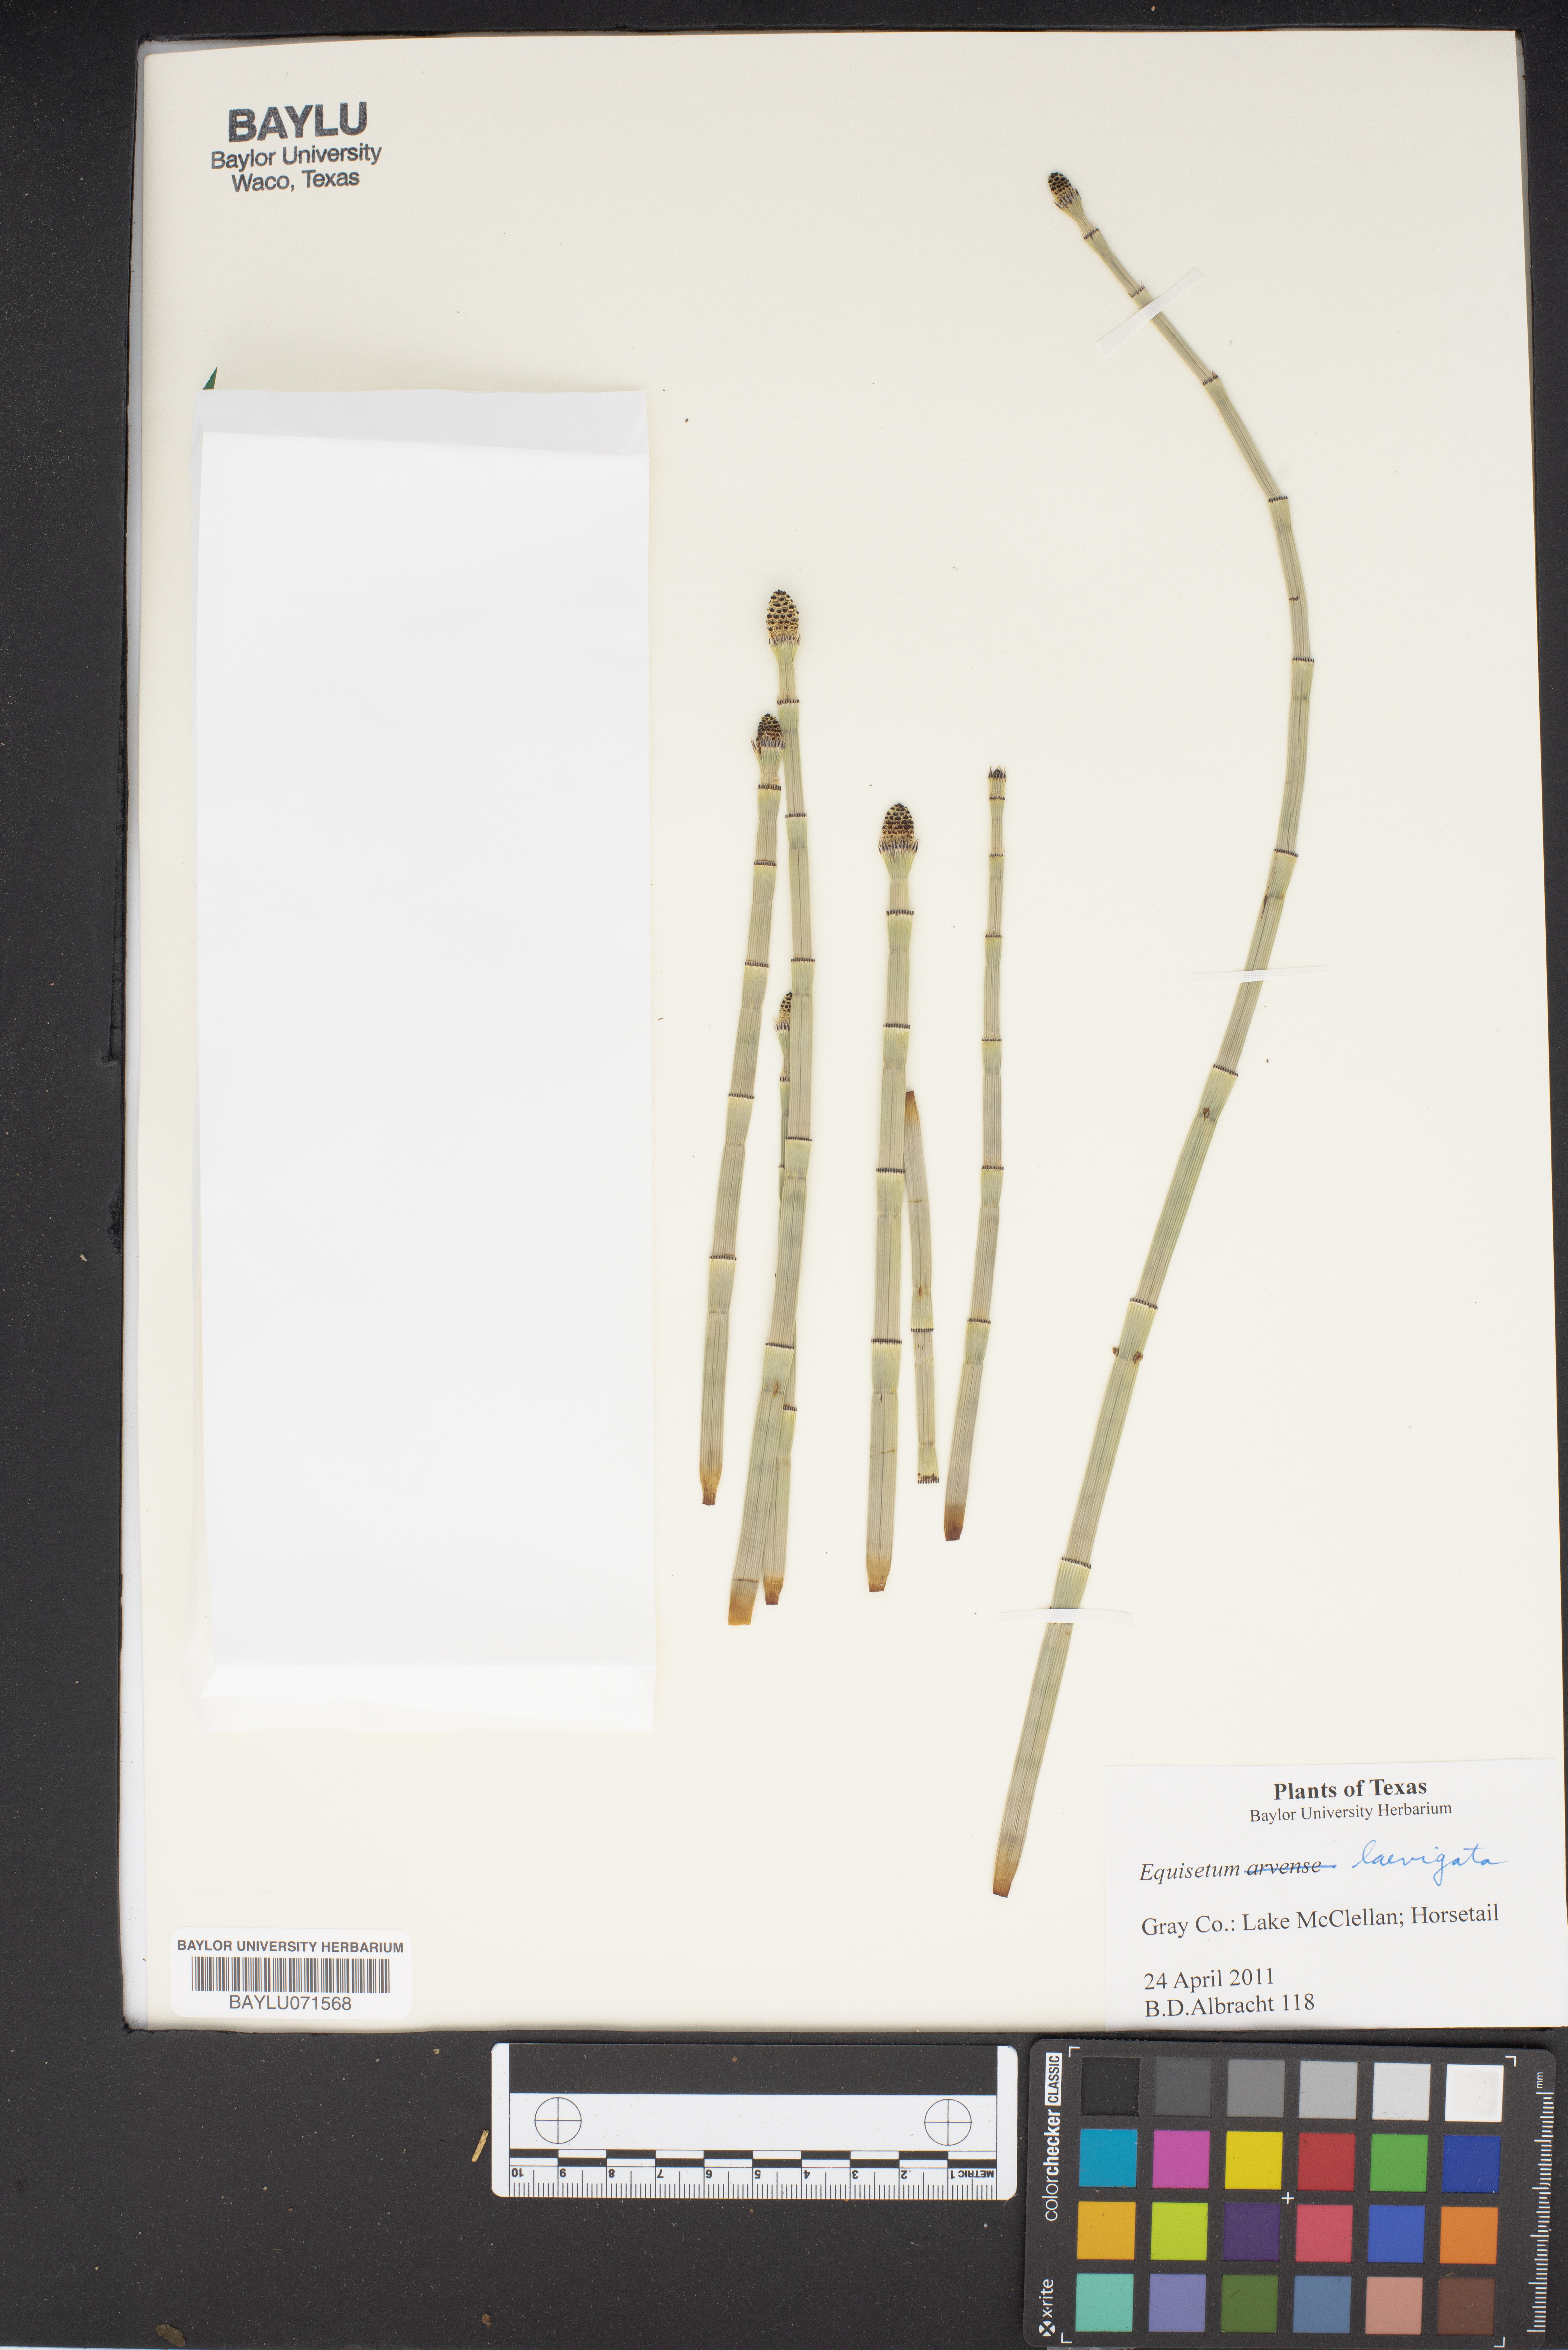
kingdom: Plantae
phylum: Tracheophyta
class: Polypodiopsida
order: Equisetales
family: Equisetaceae
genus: Equisetum
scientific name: Equisetum laevigatum
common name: Smooth scouring-rush
